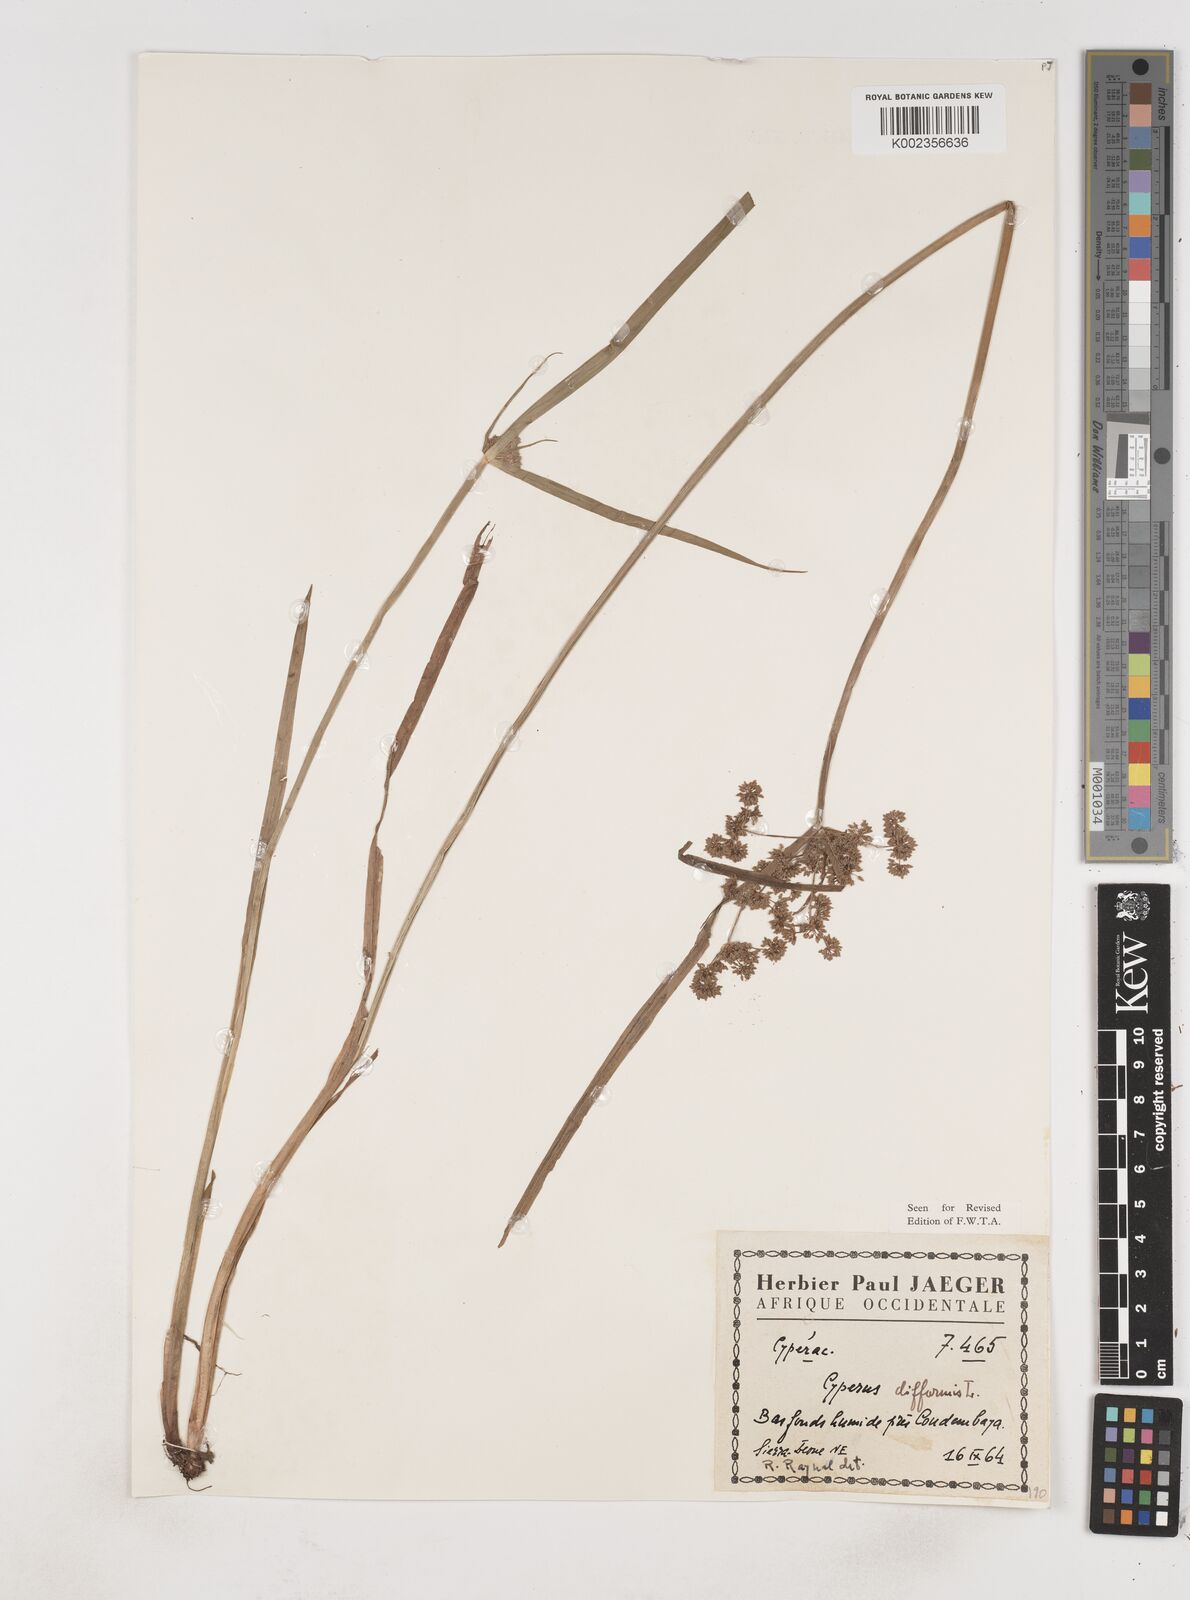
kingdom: Plantae
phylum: Tracheophyta
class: Liliopsida
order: Poales
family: Cyperaceae
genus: Cyperus
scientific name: Cyperus difformis
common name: Variable flatsedge
